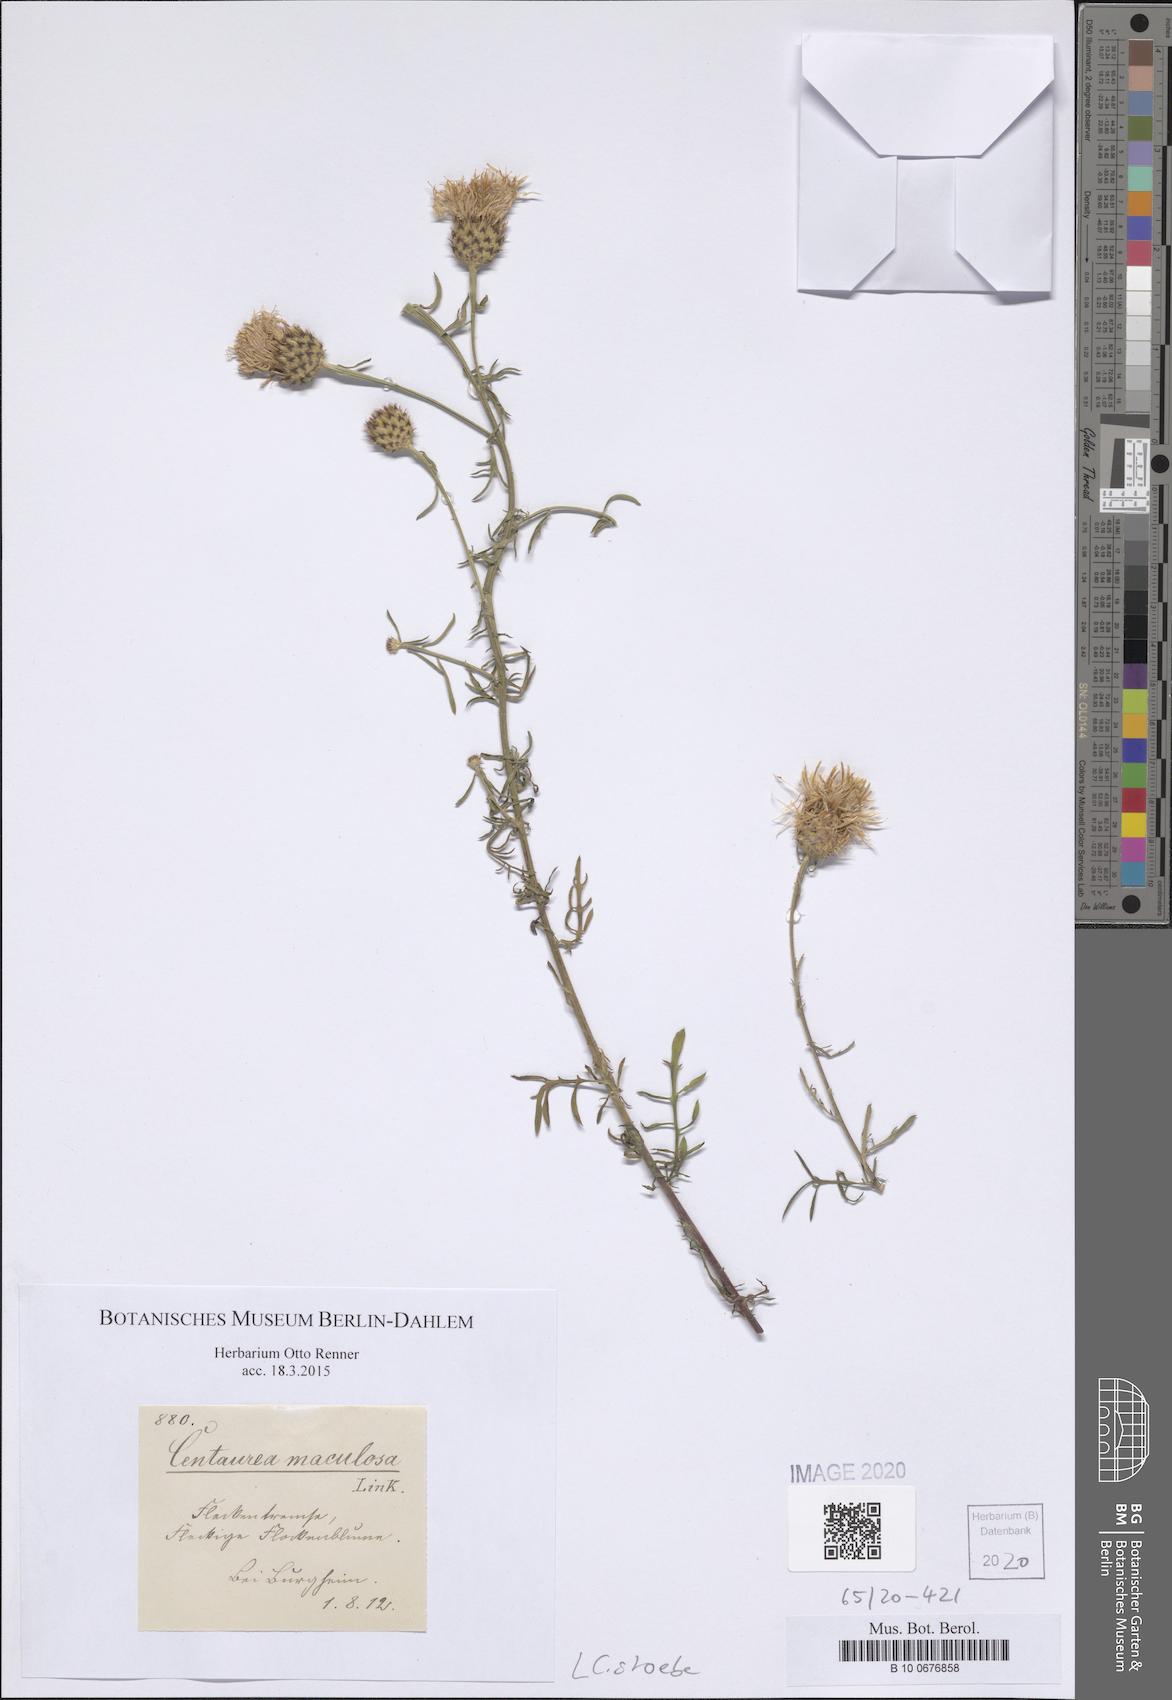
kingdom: Plantae
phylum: Tracheophyta
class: Magnoliopsida
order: Asterales
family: Asteraceae
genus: Centaurea
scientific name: Centaurea stoebe
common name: Spotted knapweed
